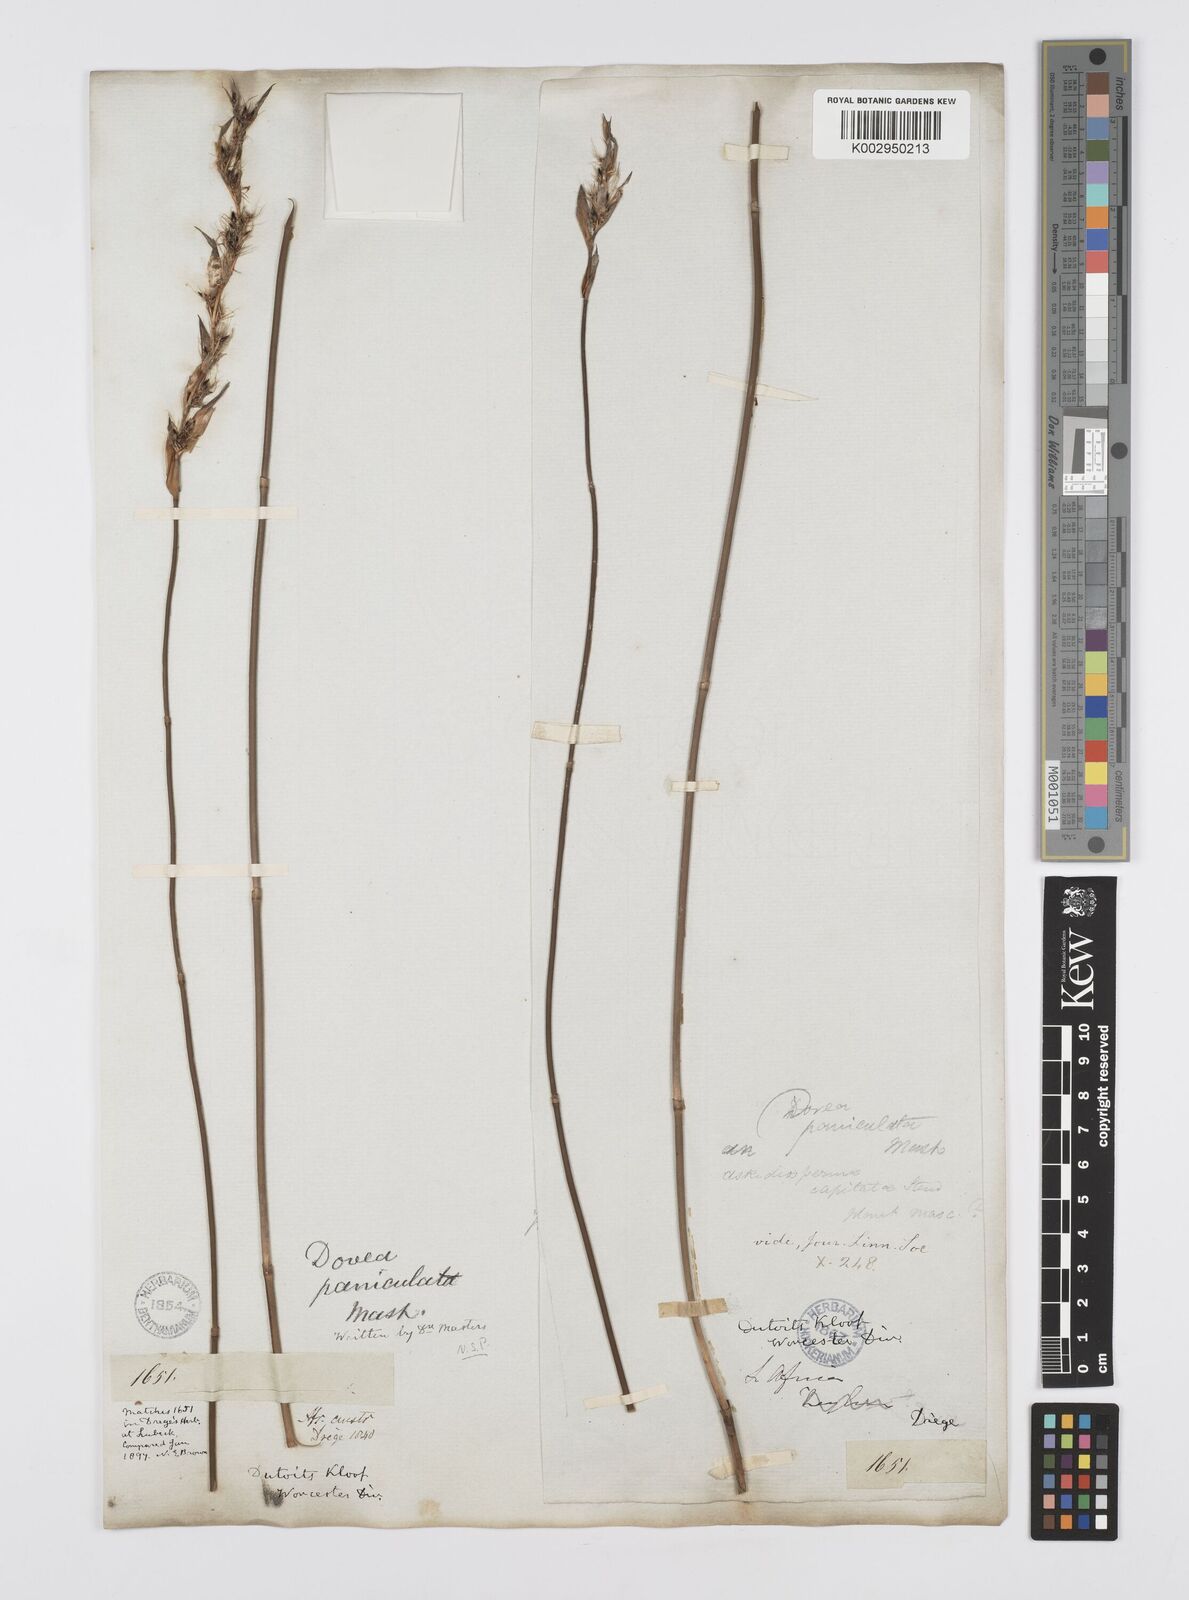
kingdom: Plantae
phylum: Tracheophyta
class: Liliopsida
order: Poales
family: Restionaceae
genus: Askidiosperma
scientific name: Askidiosperma paniculatum
